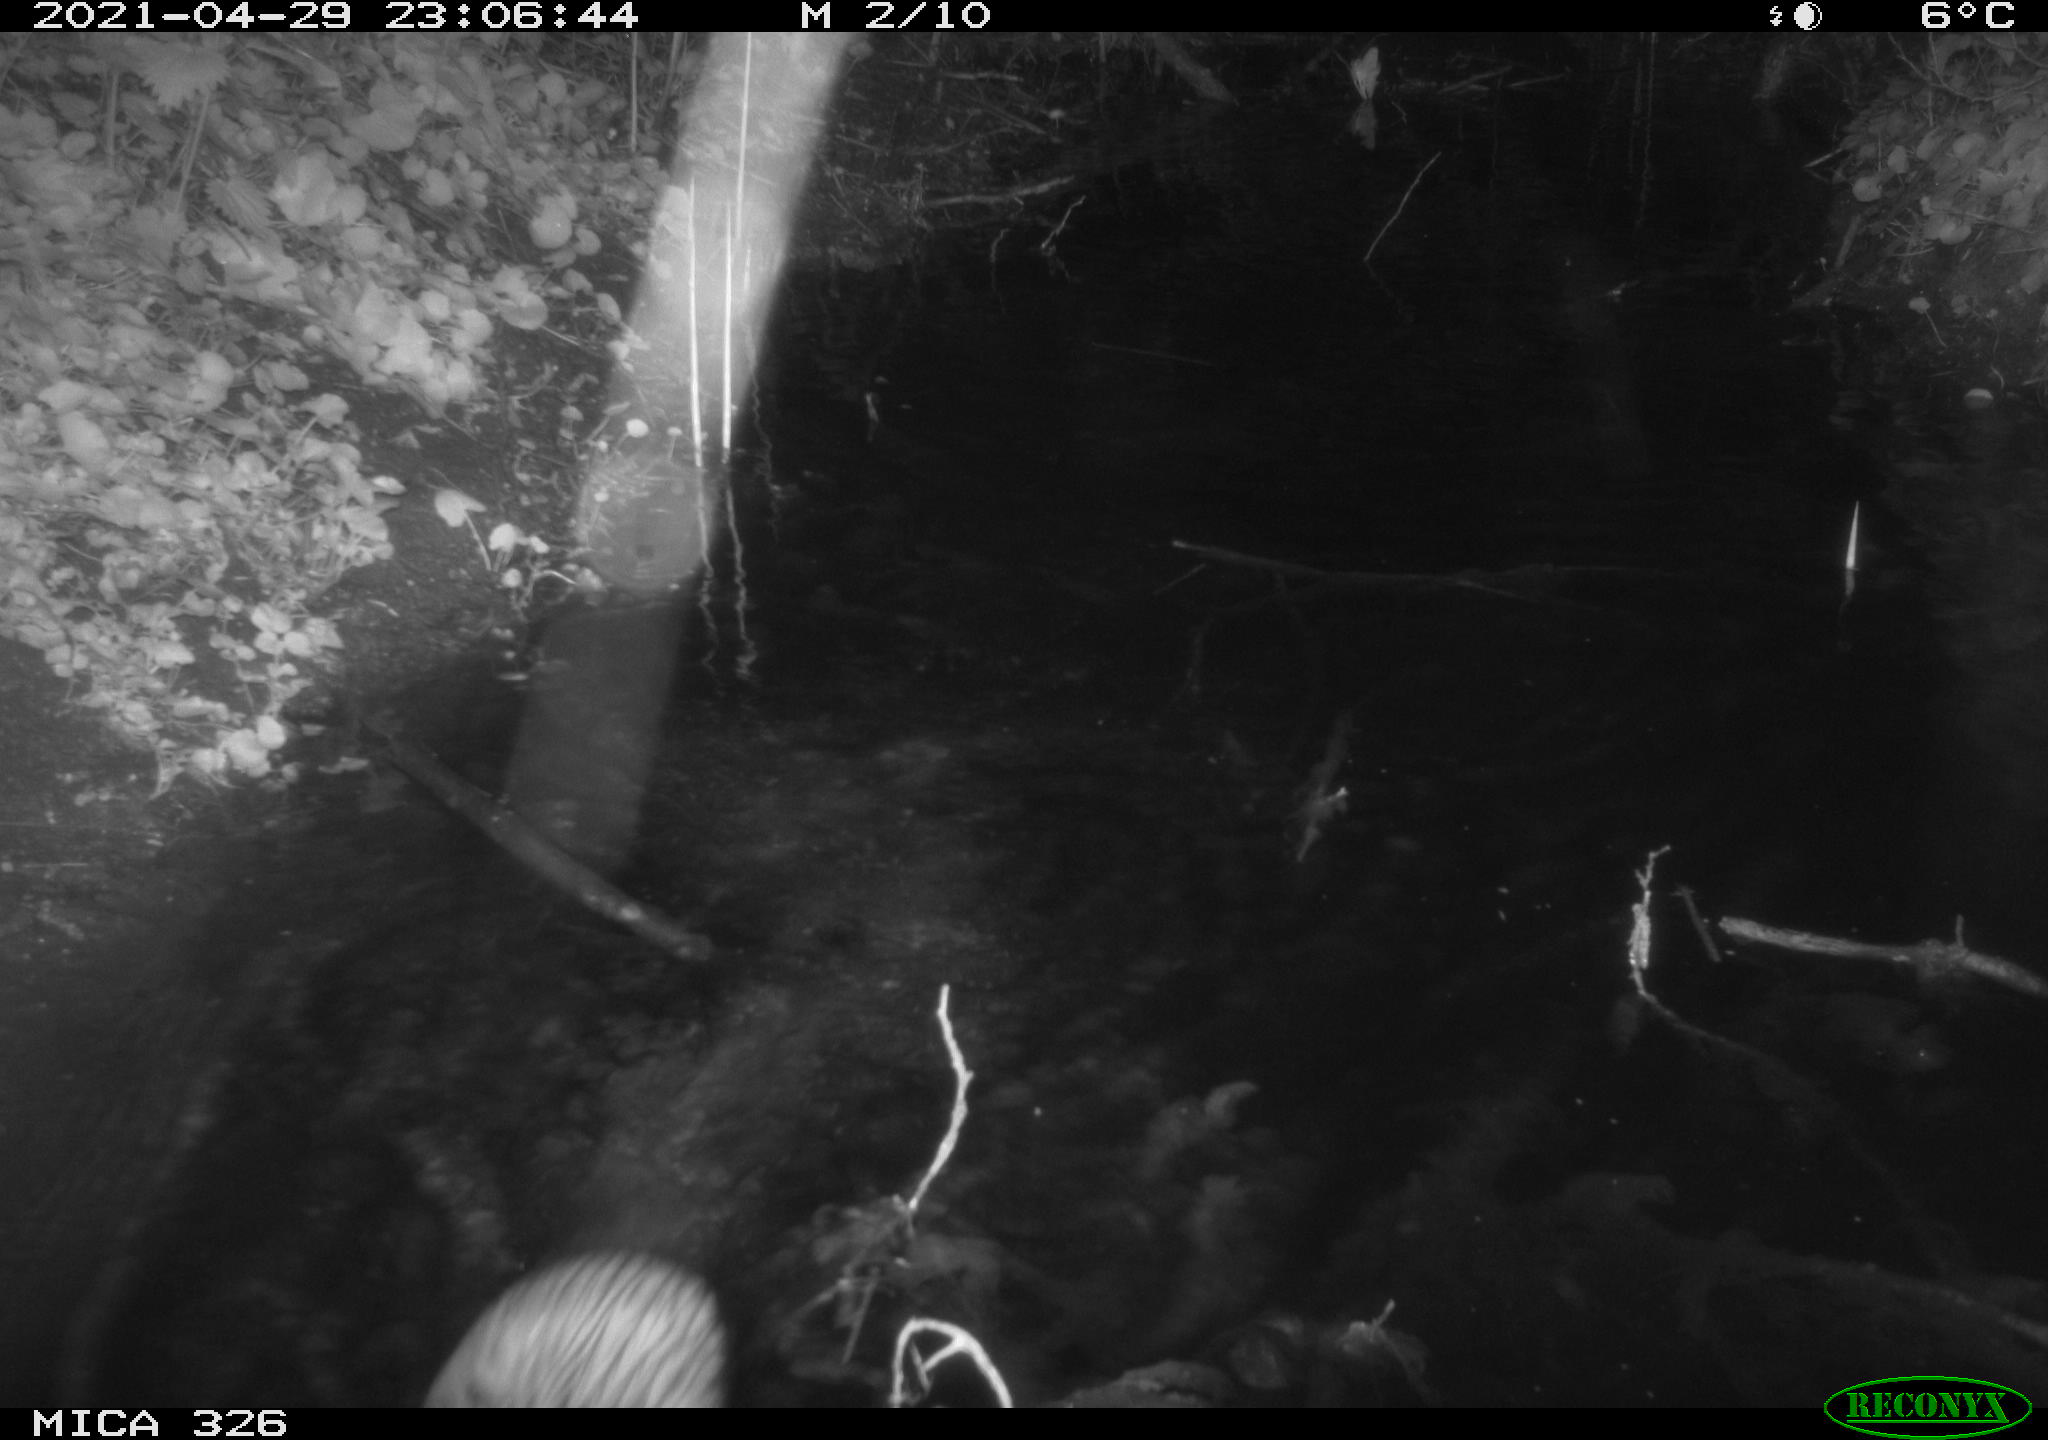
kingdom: Animalia
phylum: Chordata
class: Mammalia
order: Rodentia
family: Cricetidae
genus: Ondatra
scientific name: Ondatra zibethicus
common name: Muskrat
